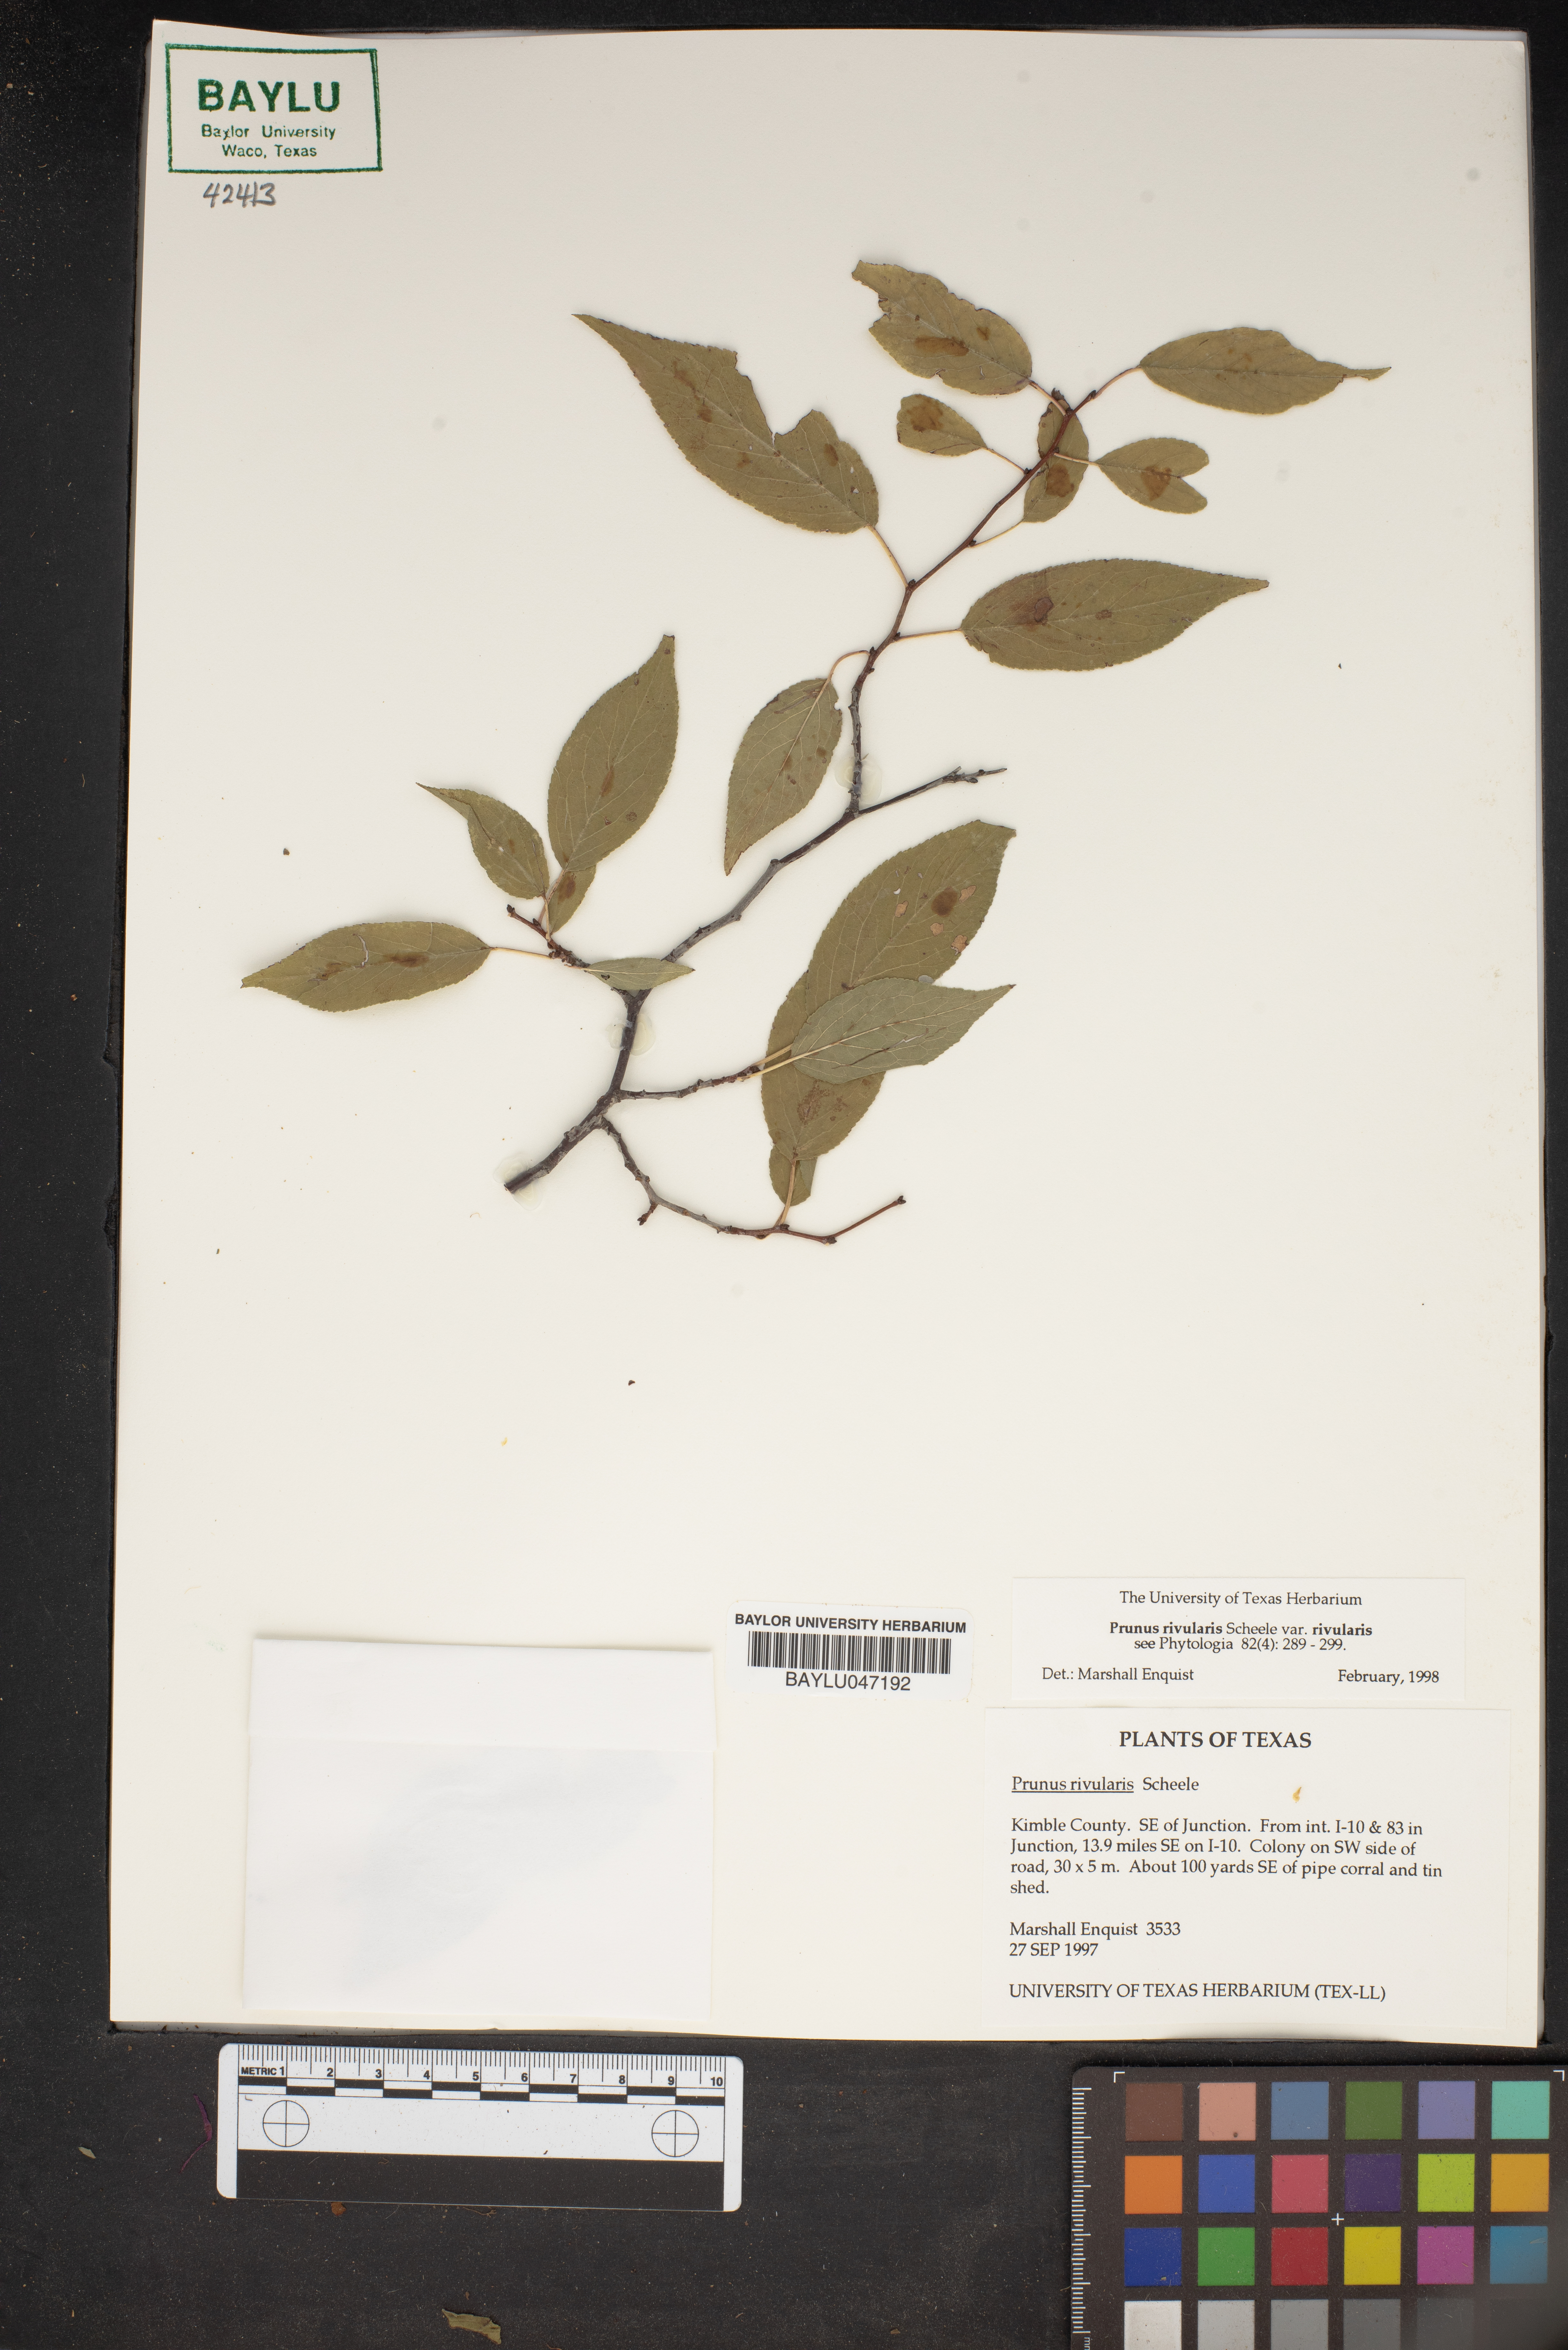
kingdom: Plantae
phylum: Tracheophyta
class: Magnoliopsida
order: Rosales
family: Rosaceae
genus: Prunus
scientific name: Prunus rivularis
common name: Creek plum
